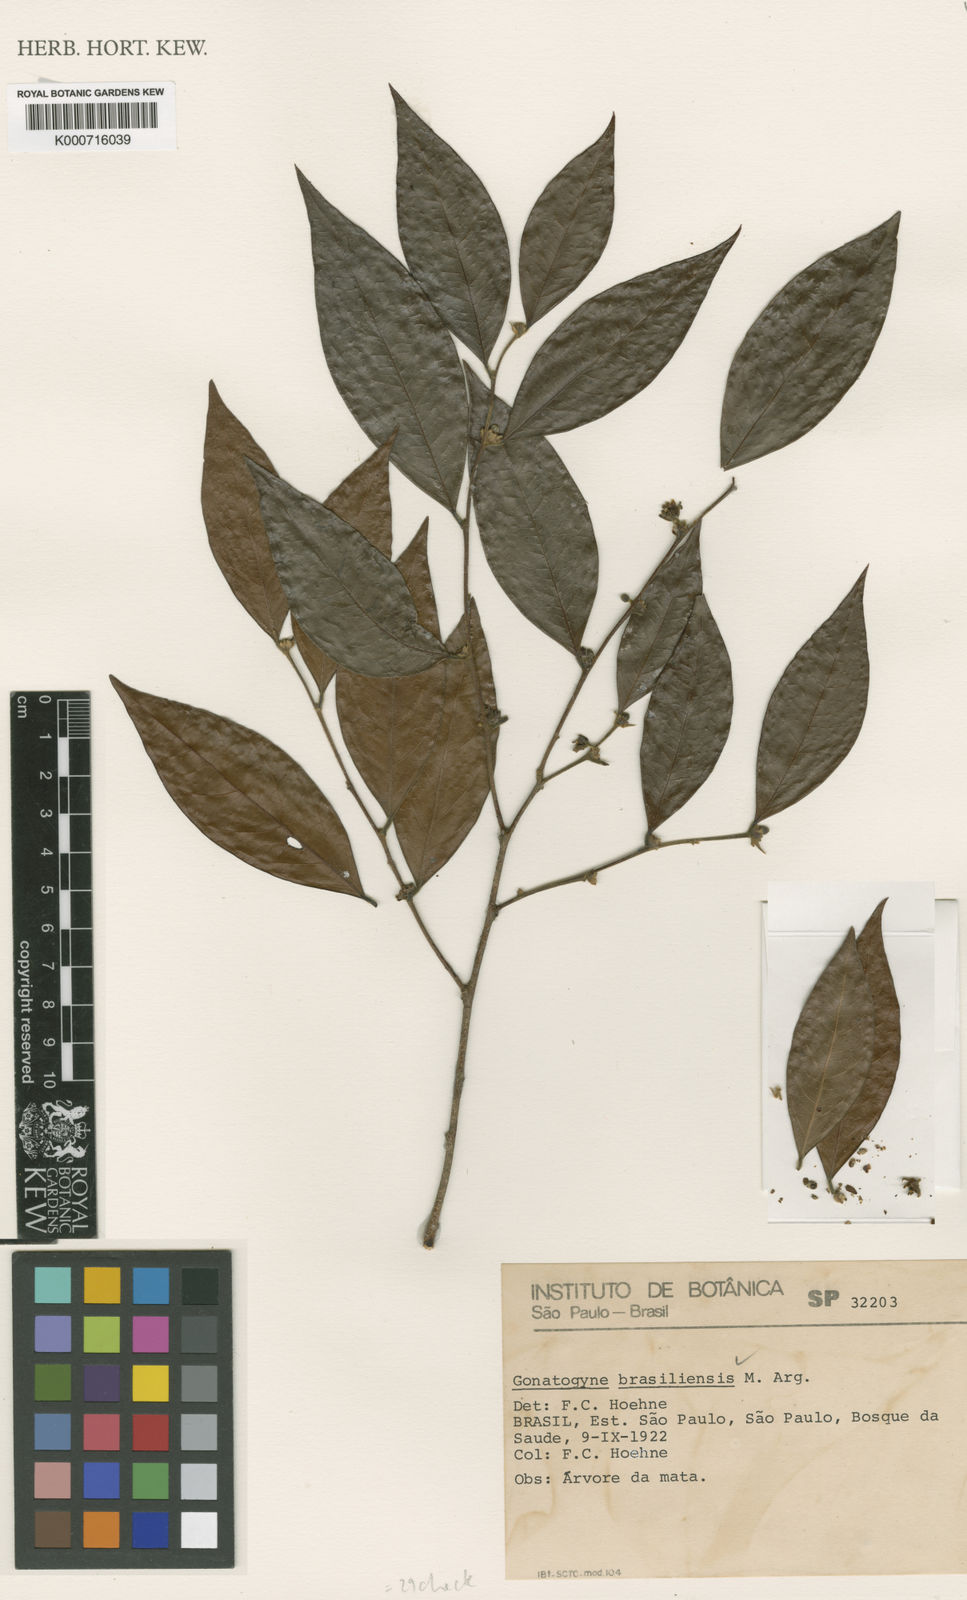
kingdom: Plantae
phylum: Tracheophyta
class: Magnoliopsida
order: Malpighiales
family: Phyllanthaceae
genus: Gonatogyne
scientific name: Gonatogyne
